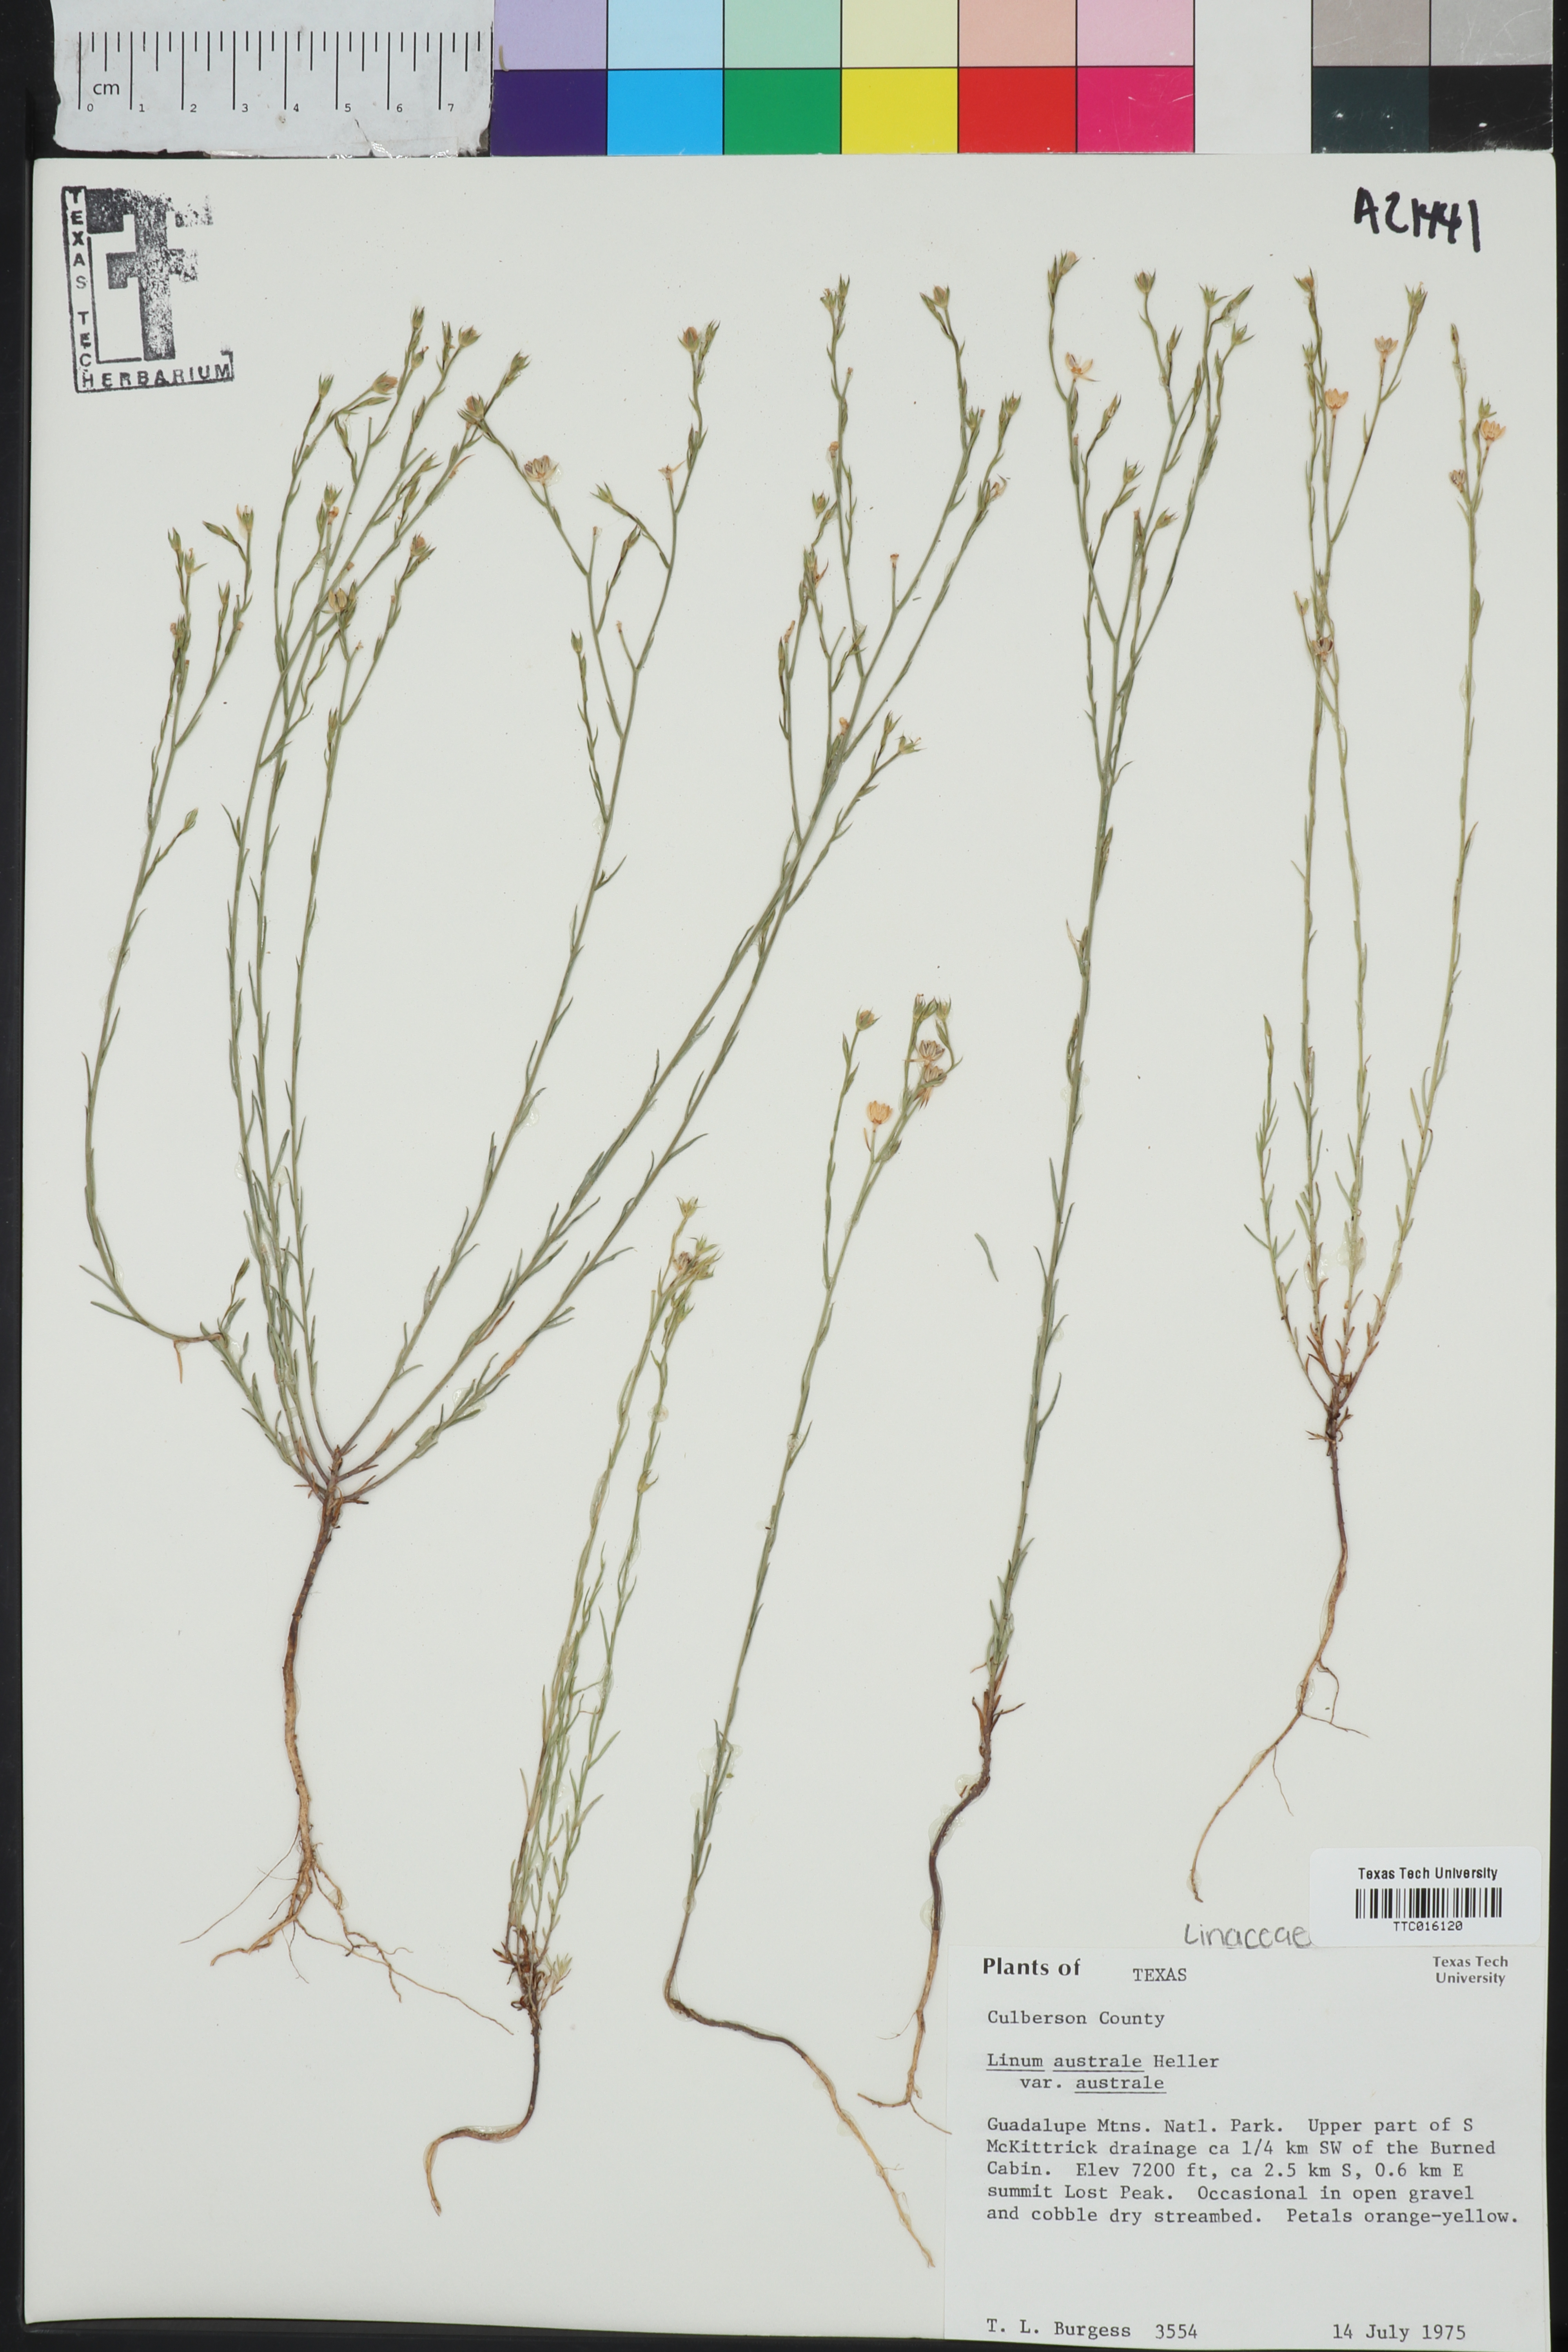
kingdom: Plantae
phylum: Tracheophyta
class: Magnoliopsida
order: Malpighiales
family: Linaceae
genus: Linum
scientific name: Linum australe
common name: Small yellow flax
